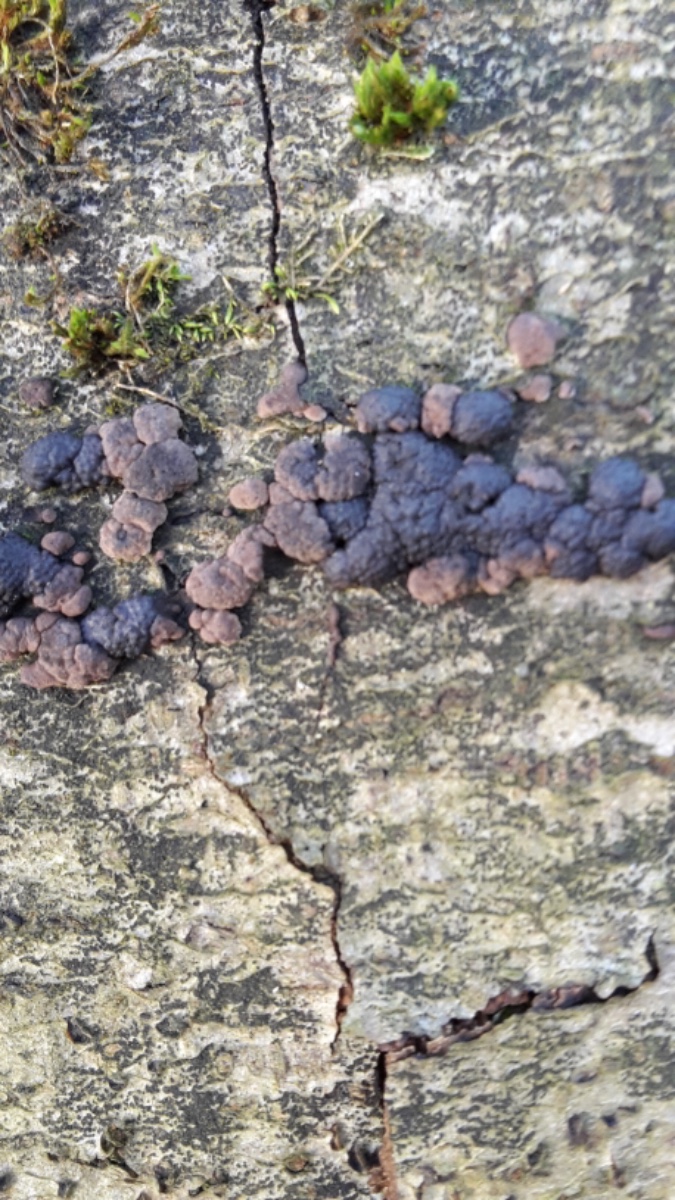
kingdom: Fungi
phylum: Ascomycota
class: Sordariomycetes
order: Xylariales
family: Hypoxylaceae
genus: Jackrogersella
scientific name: Jackrogersella cohaerens
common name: sammenflydende kulbær
